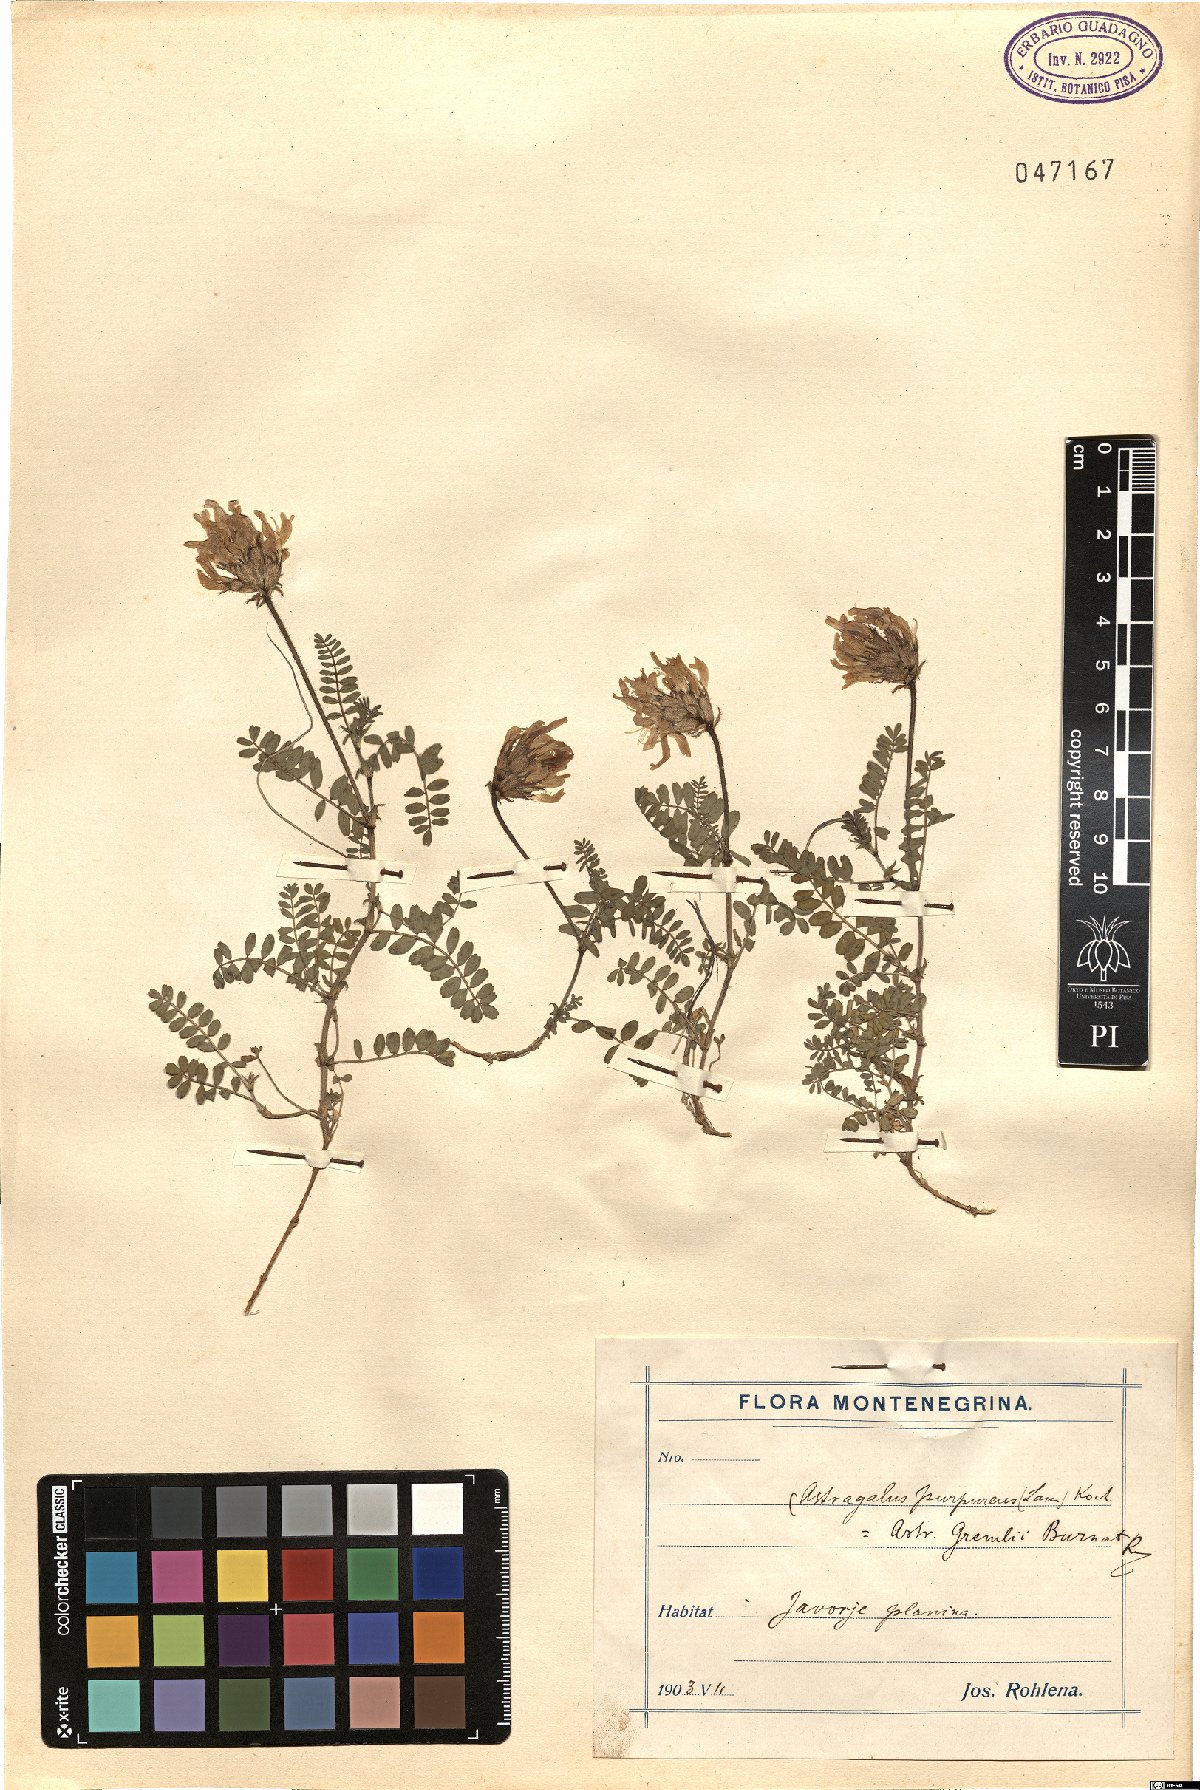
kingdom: Plantae
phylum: Tracheophyta
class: Magnoliopsida
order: Fabales
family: Fabaceae
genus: Astragalus
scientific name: Astragalus hypoglottis
